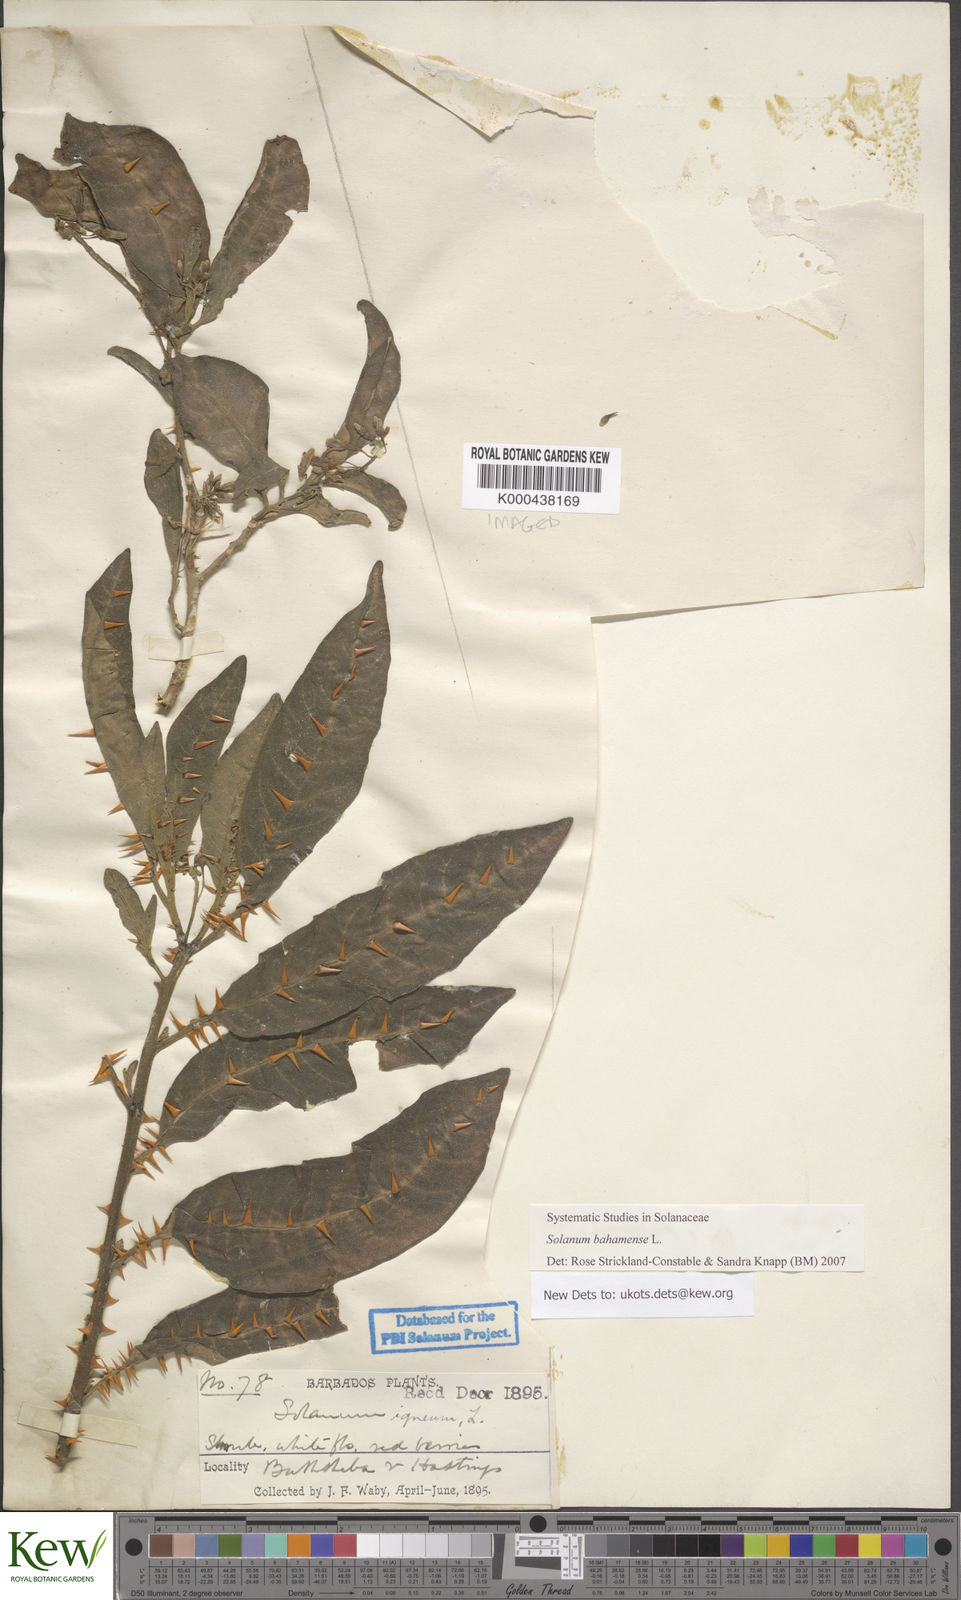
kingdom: Plantae
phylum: Tracheophyta
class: Magnoliopsida
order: Solanales
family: Solanaceae
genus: Solanum
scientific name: Solanum bahamense
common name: Canker-berry
